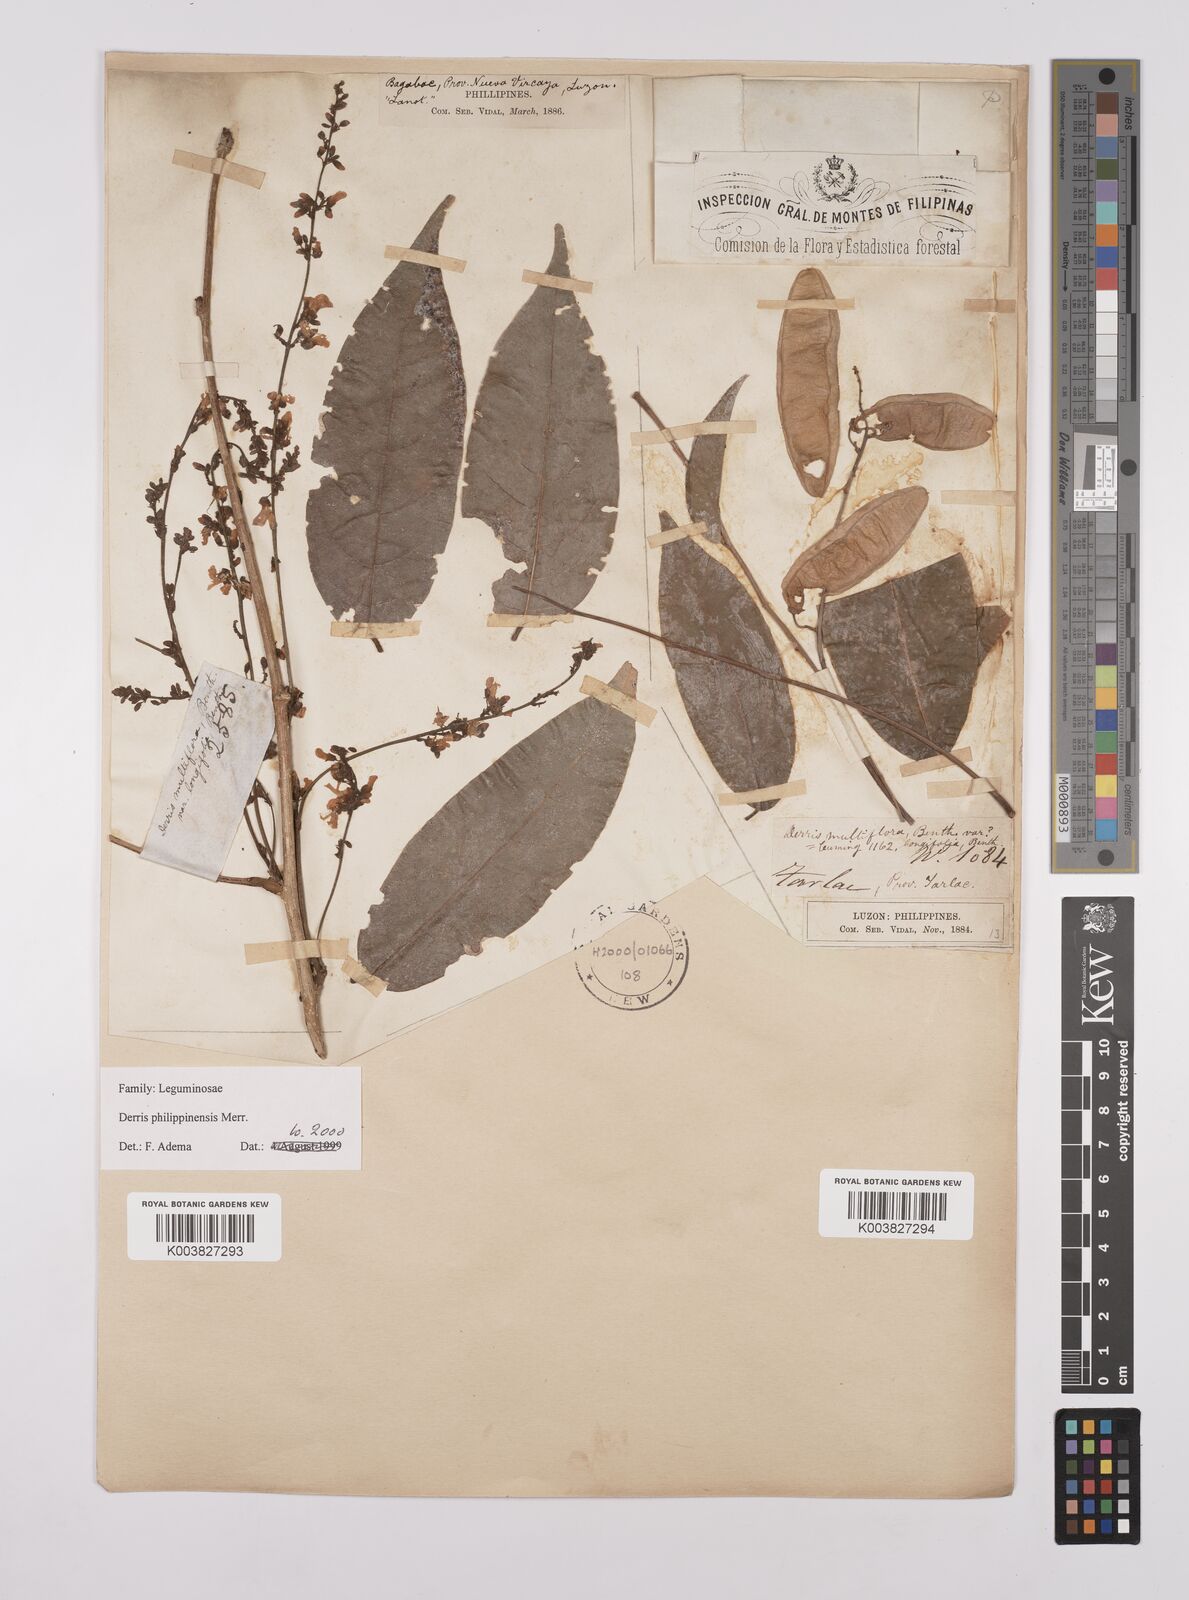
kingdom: Plantae
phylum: Tracheophyta
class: Magnoliopsida
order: Fabales
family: Fabaceae
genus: Brachypterum
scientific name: Brachypterum philippinense
